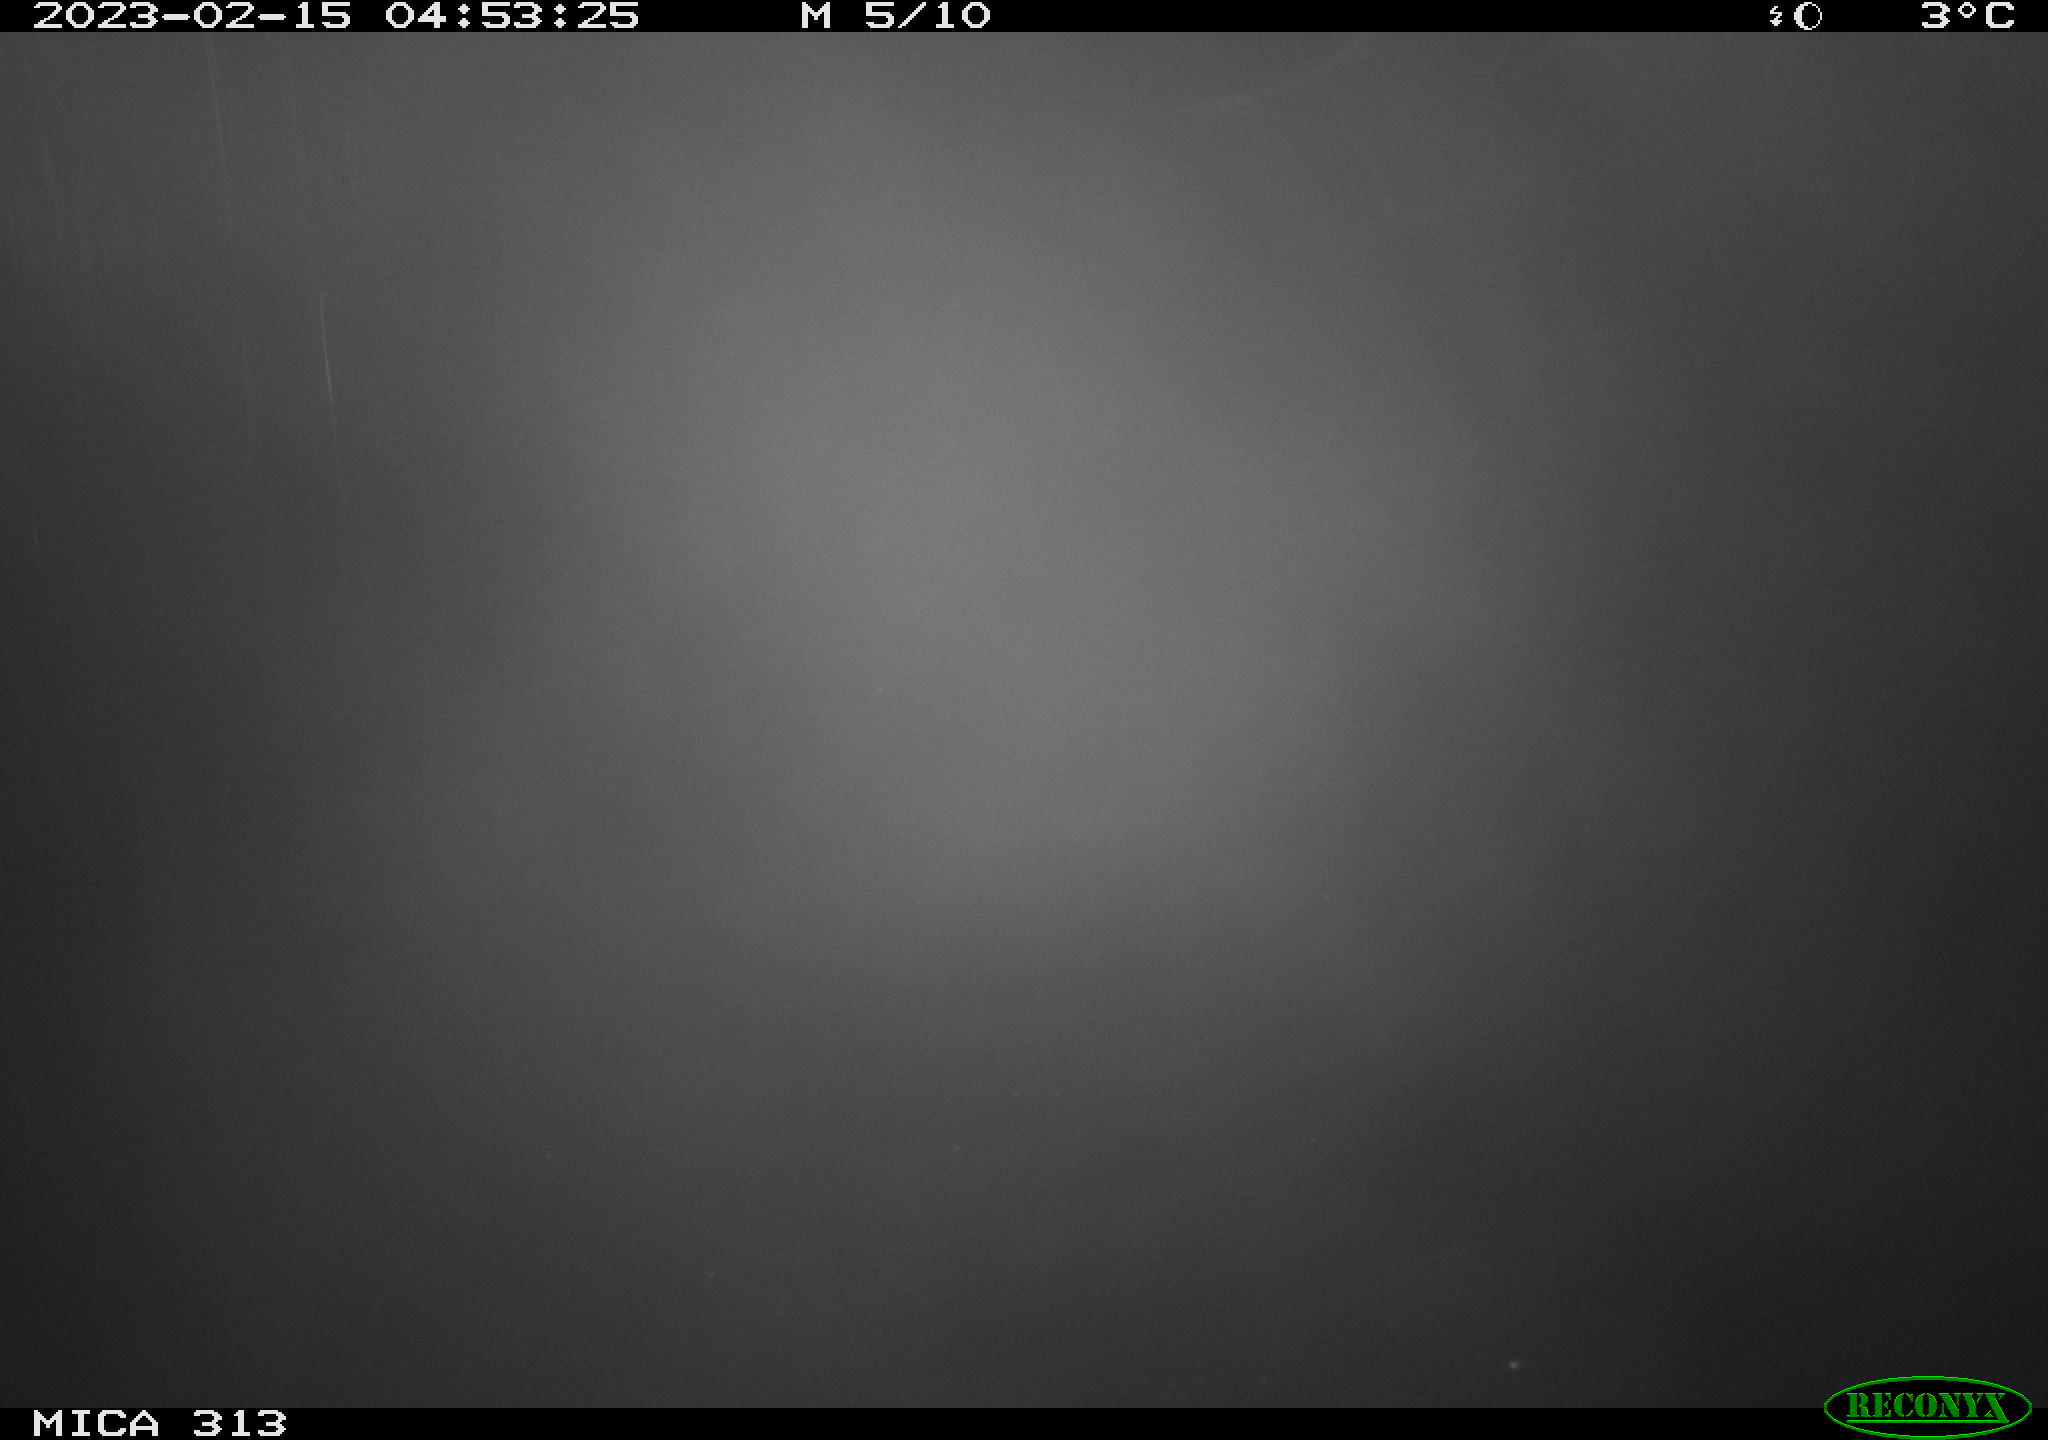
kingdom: Animalia
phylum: Chordata
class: Aves
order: Gruiformes
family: Rallidae
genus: Gallinula
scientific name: Gallinula chloropus
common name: Common moorhen
